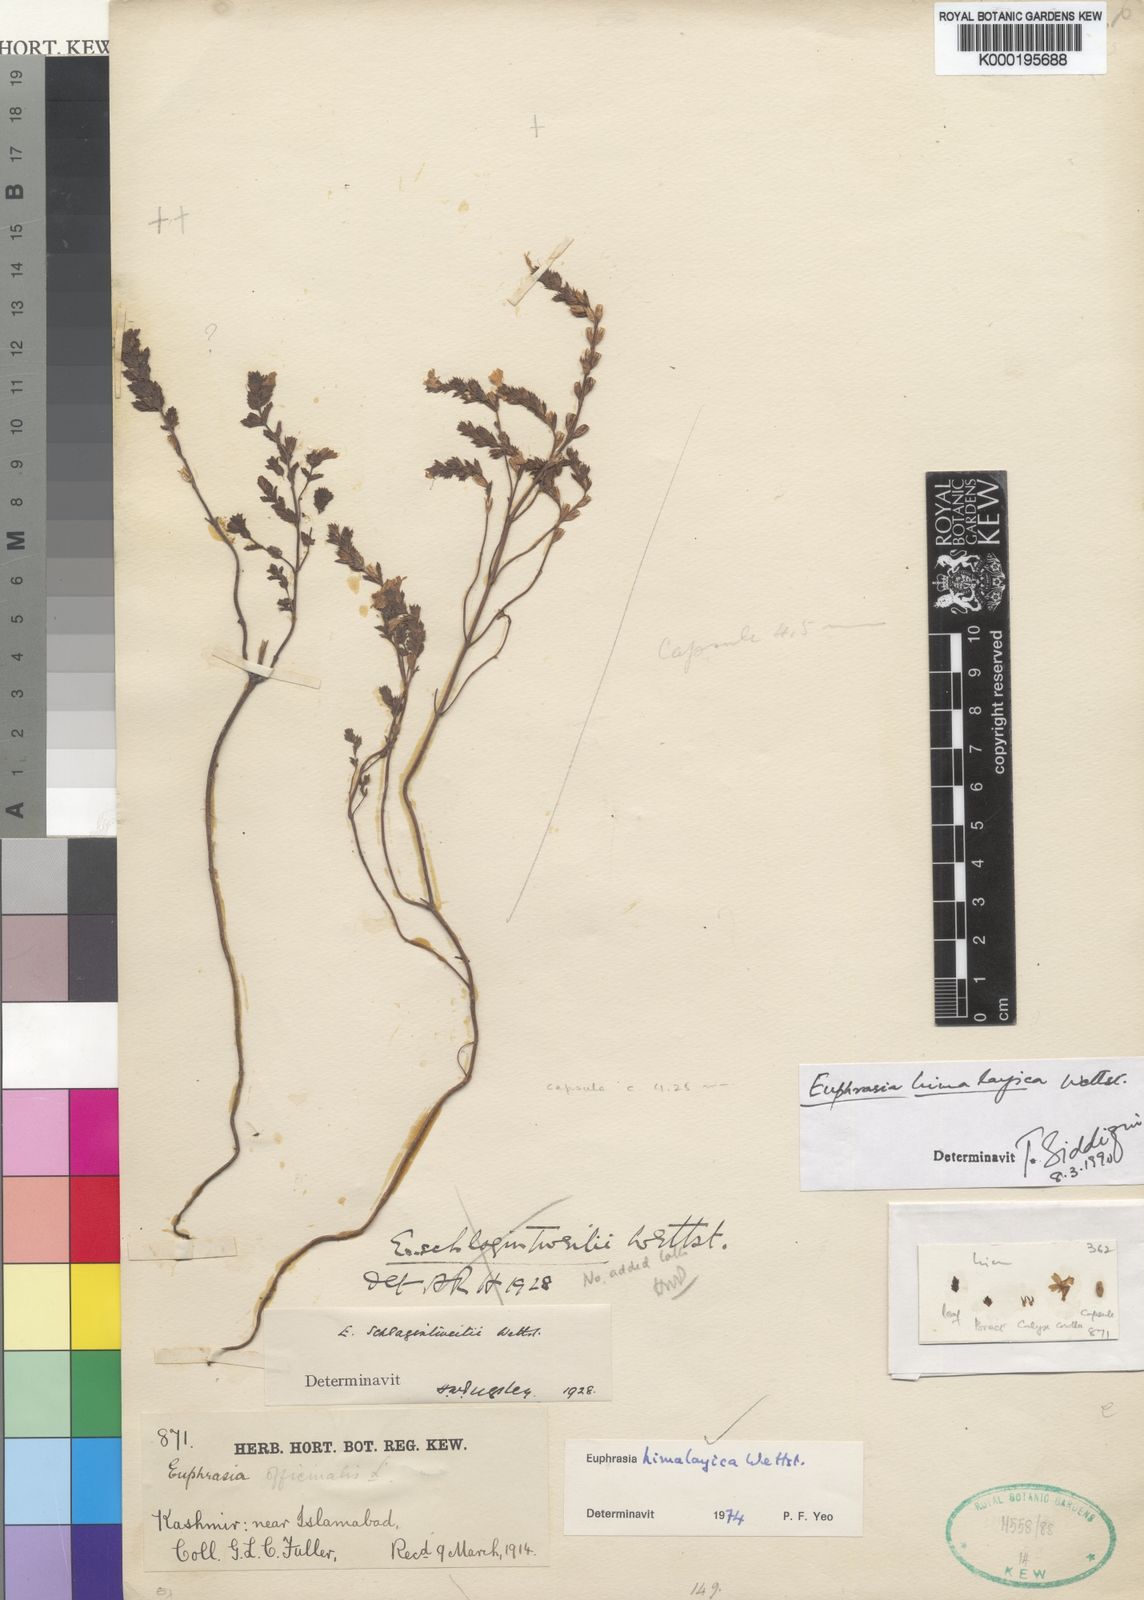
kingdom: Plantae
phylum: Tracheophyta
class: Magnoliopsida
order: Lamiales
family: Orobanchaceae
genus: Euphrasia
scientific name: Euphrasia himalayica
